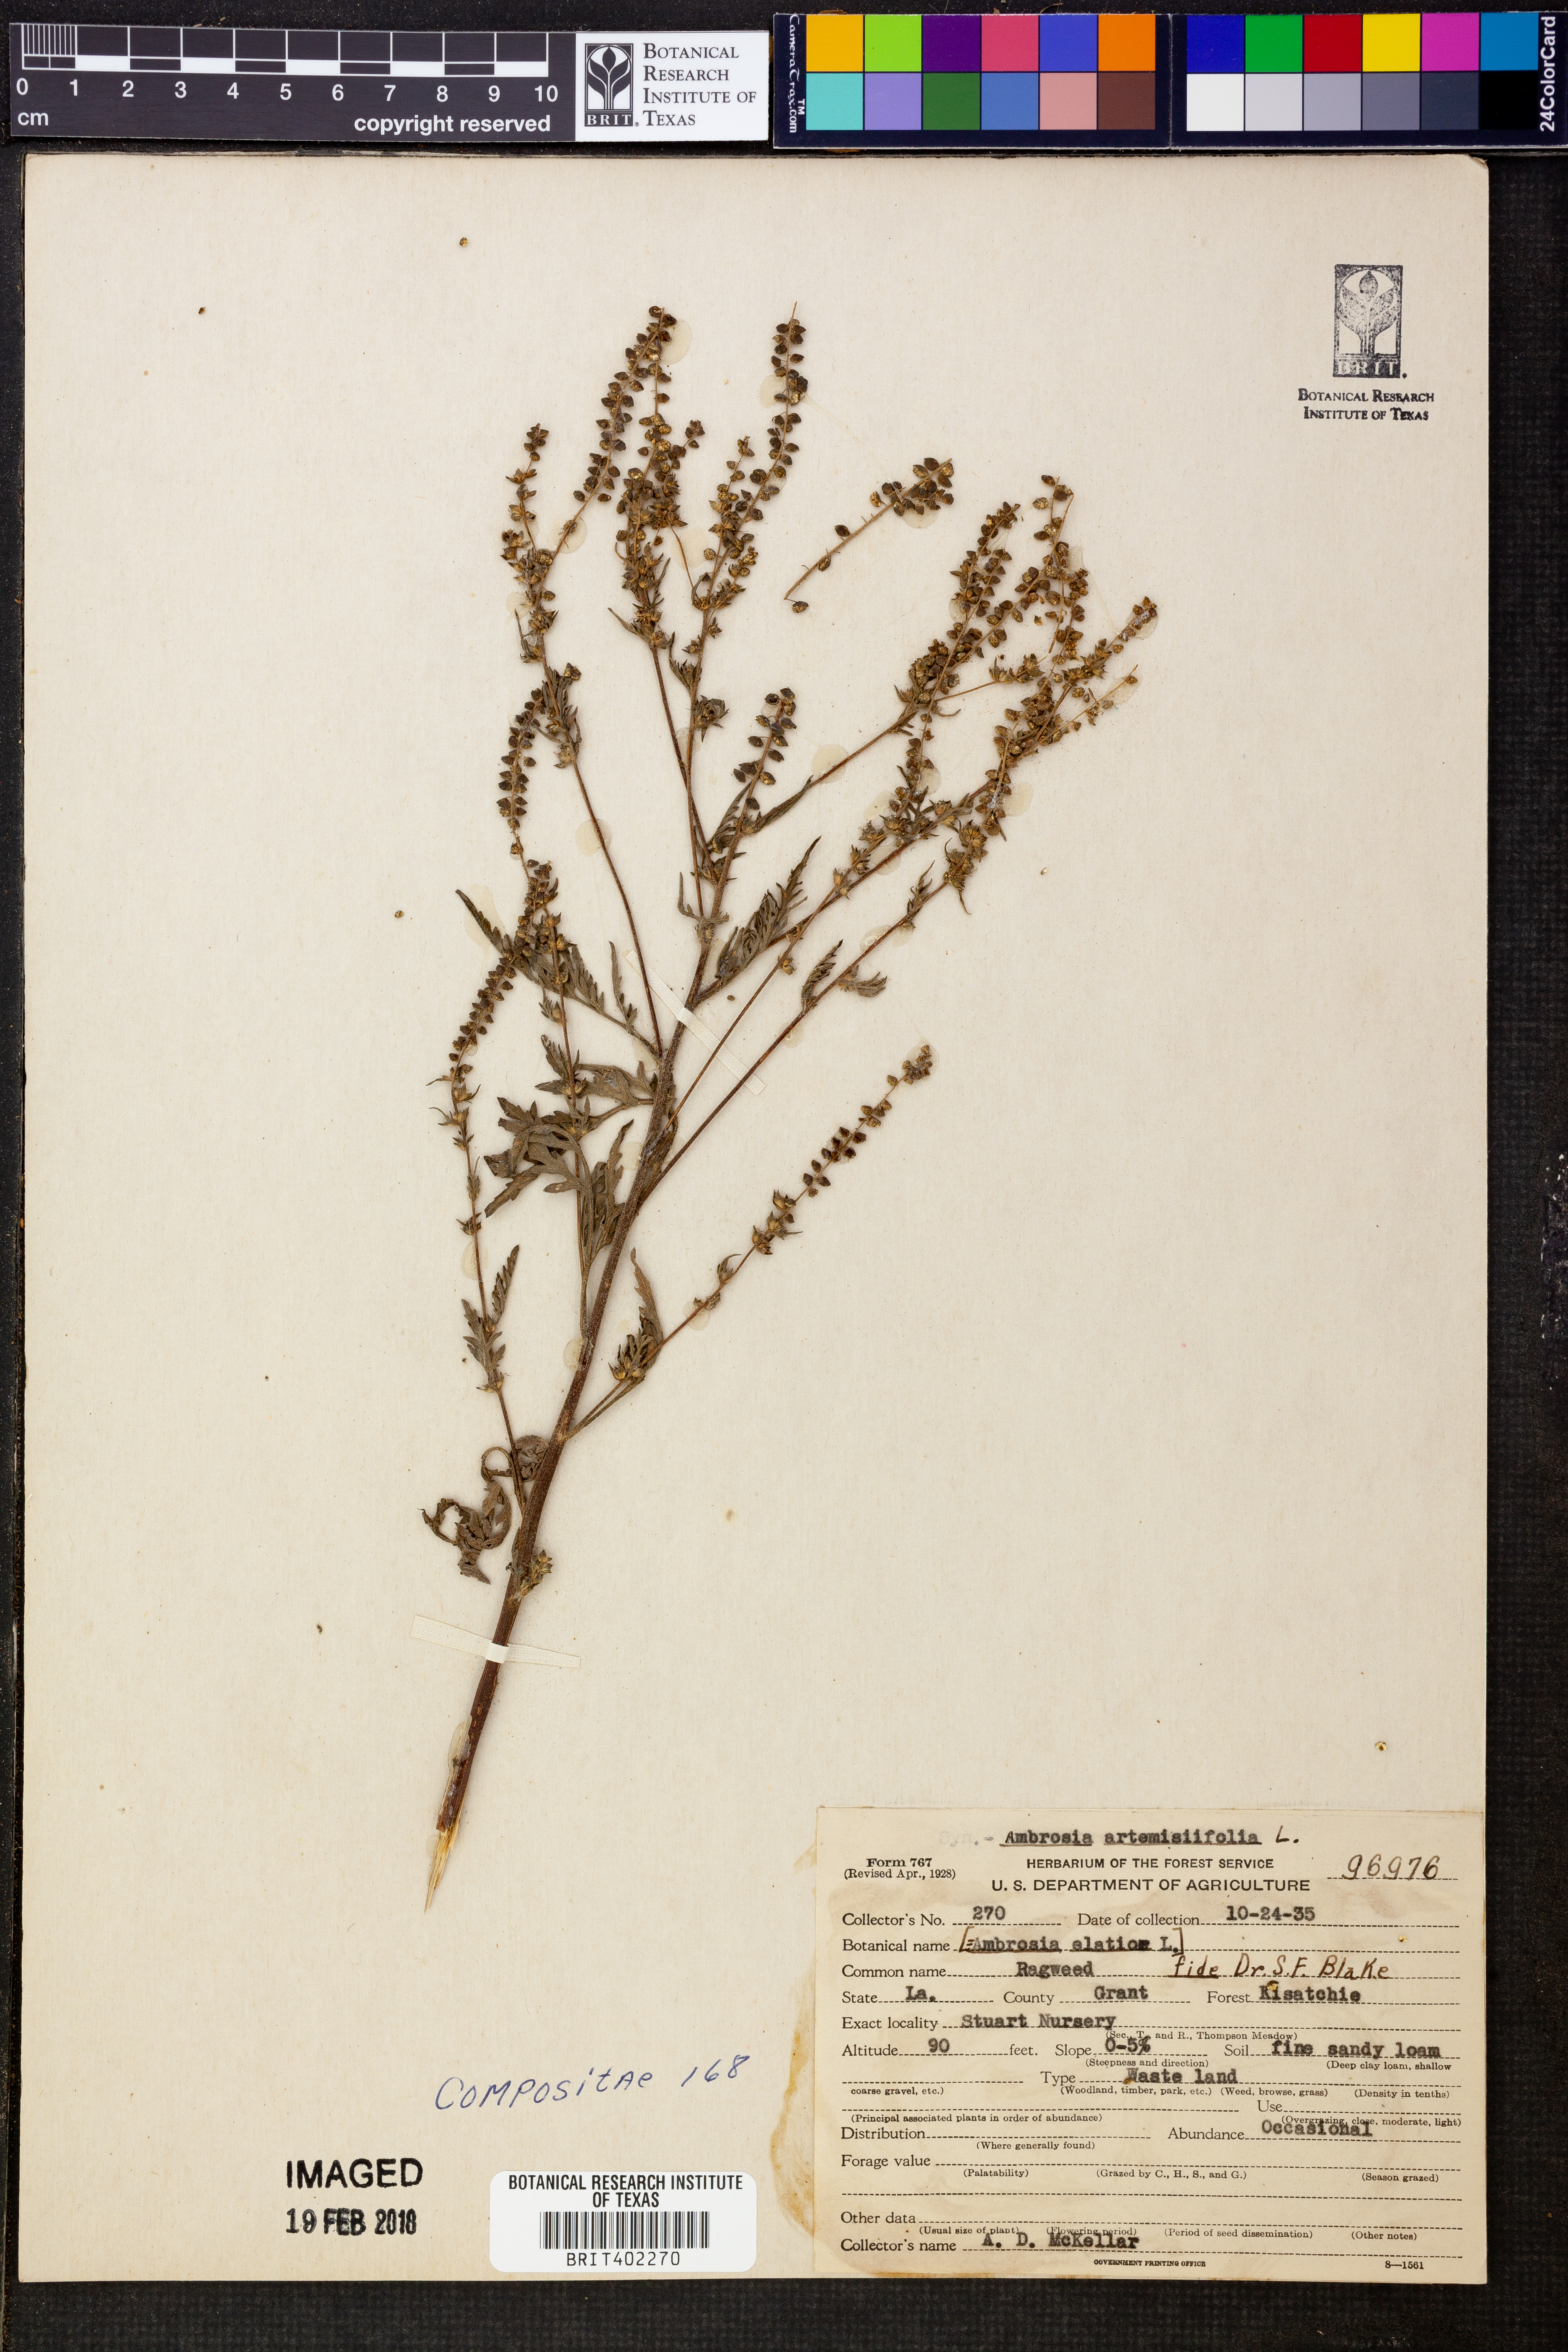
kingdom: Plantae
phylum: Tracheophyta
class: Magnoliopsida
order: Asterales
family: Asteraceae
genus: Ambrosia
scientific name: Ambrosia artemisiifolia
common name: Annual ragweed
